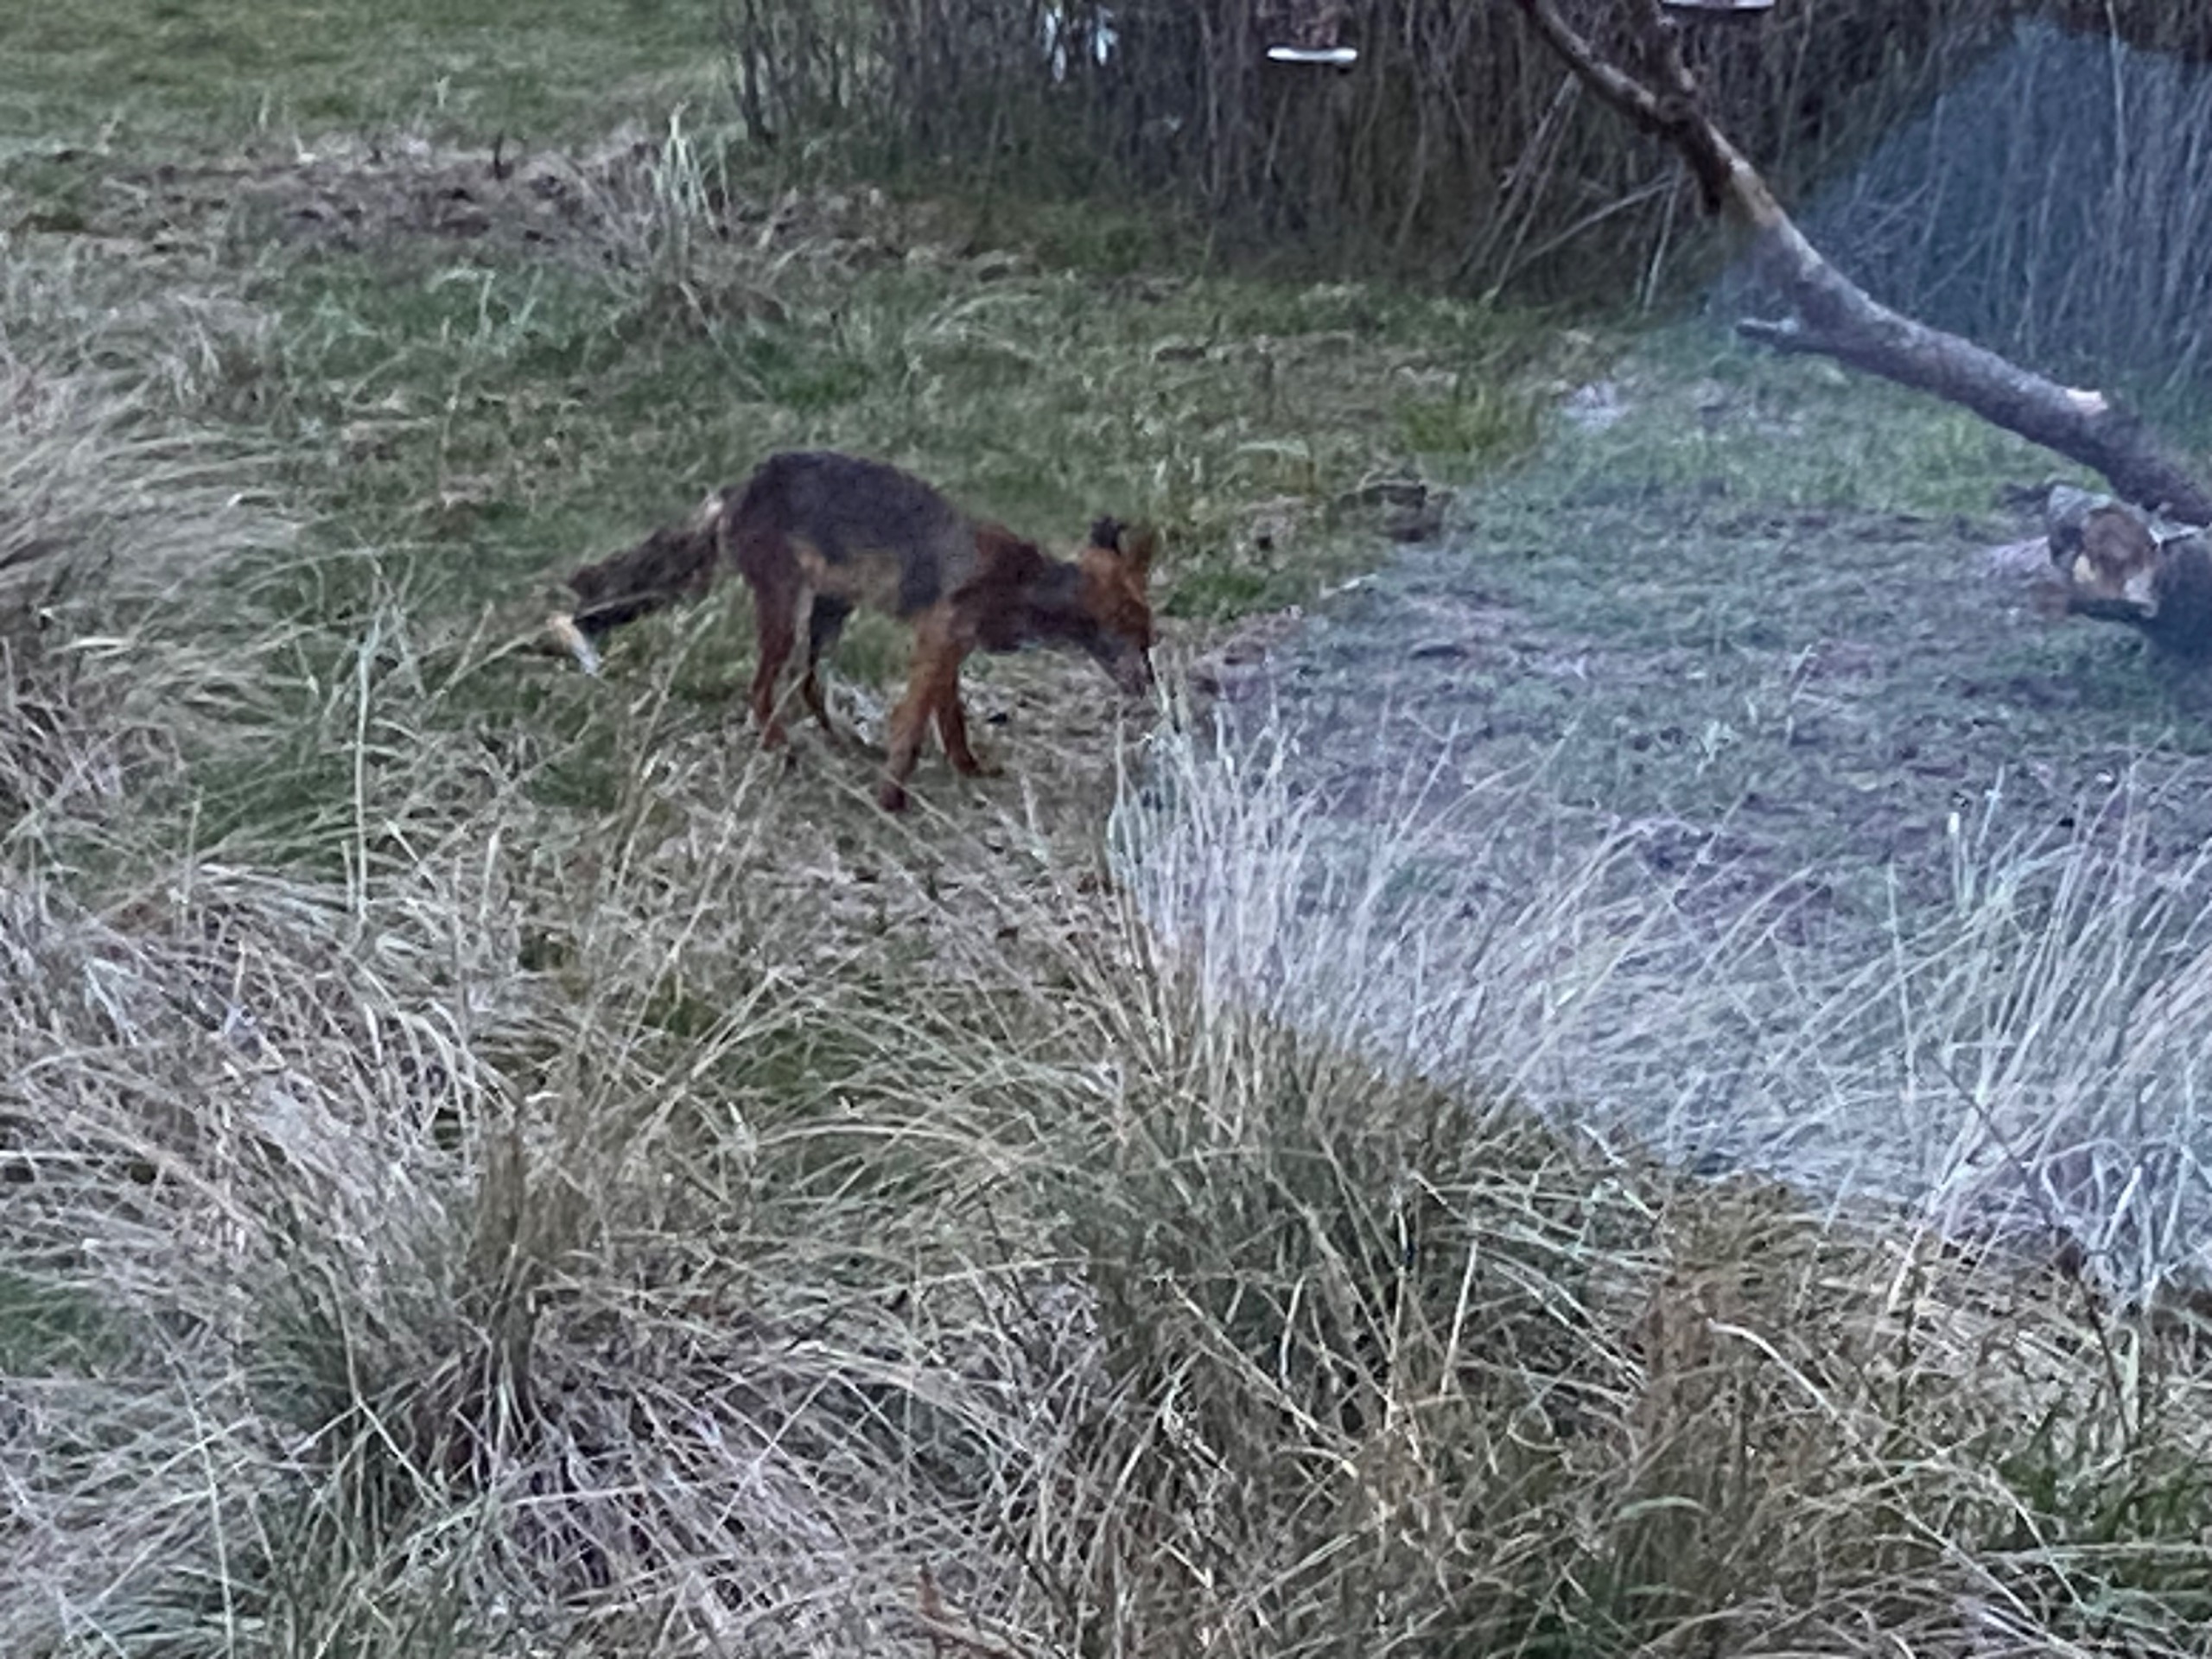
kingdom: Animalia
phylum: Chordata
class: Mammalia
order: Carnivora
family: Canidae
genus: Vulpes
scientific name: Vulpes vulpes
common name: Ræv
